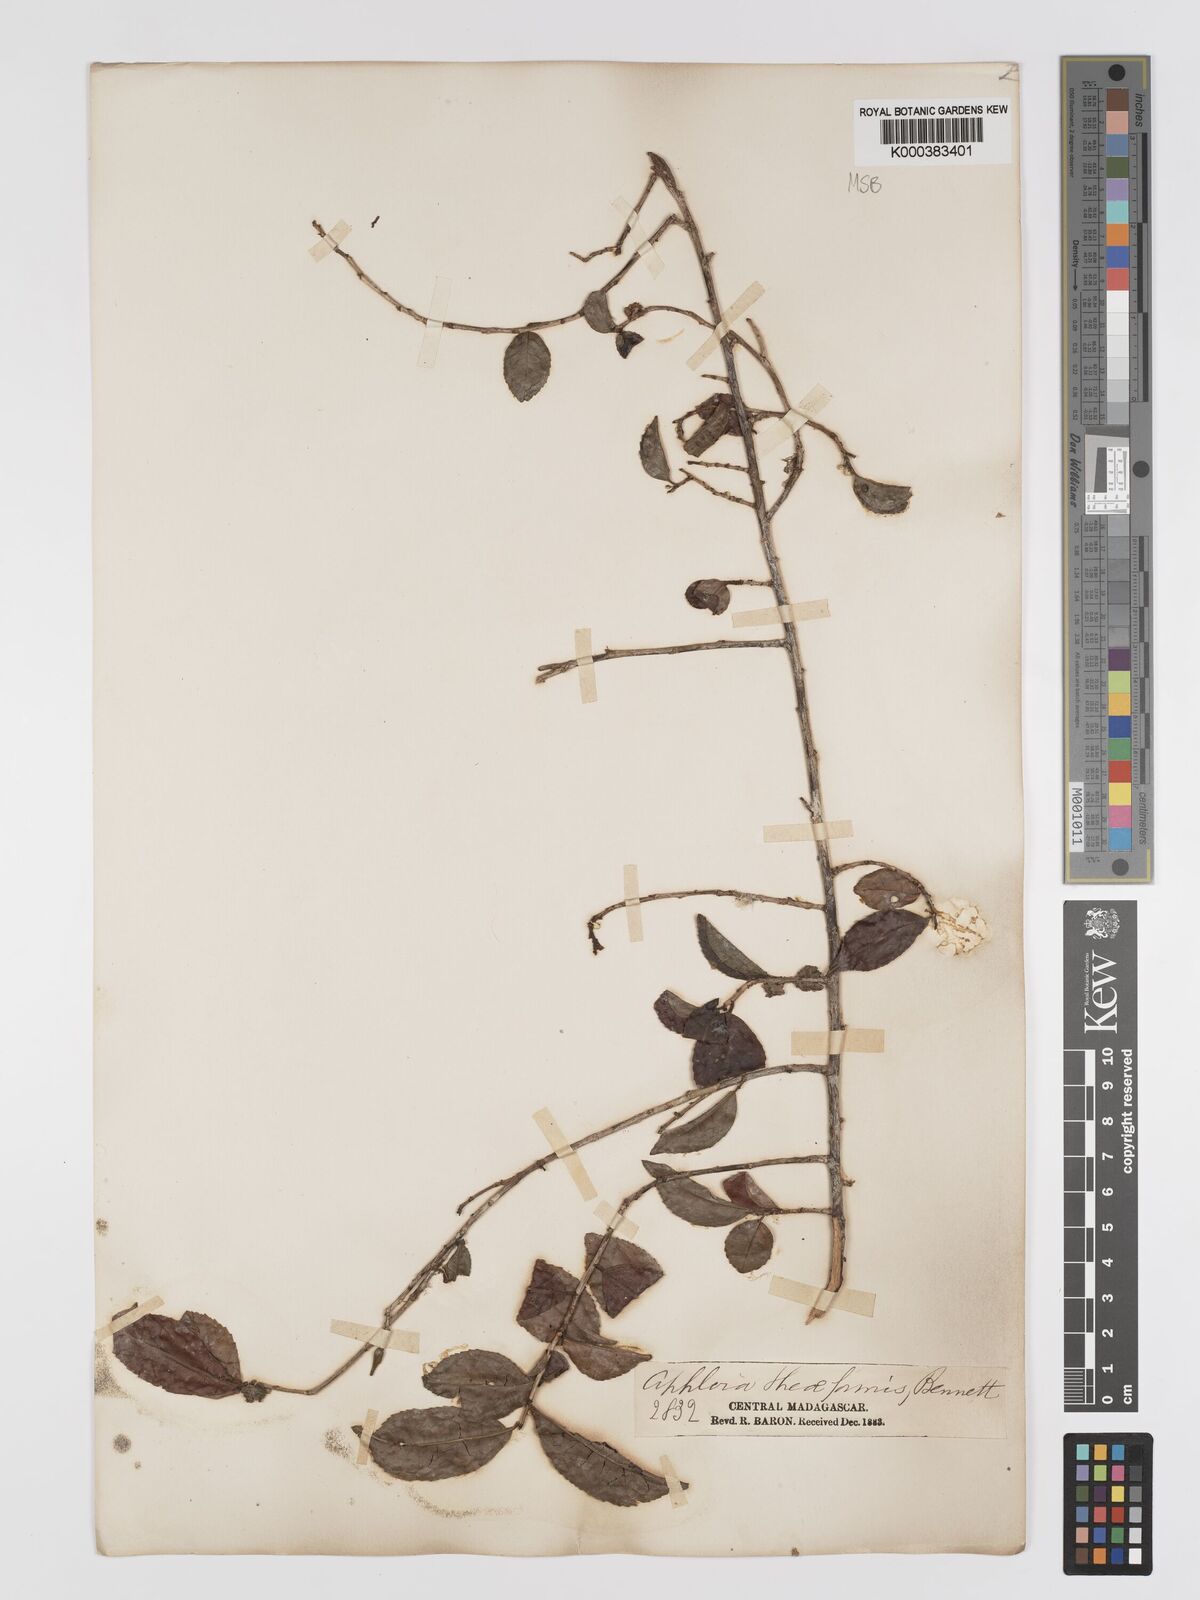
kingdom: Plantae
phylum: Tracheophyta
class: Magnoliopsida
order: Crossosomatales
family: Aphloiaceae
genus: Aphloia
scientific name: Aphloia theiformis
